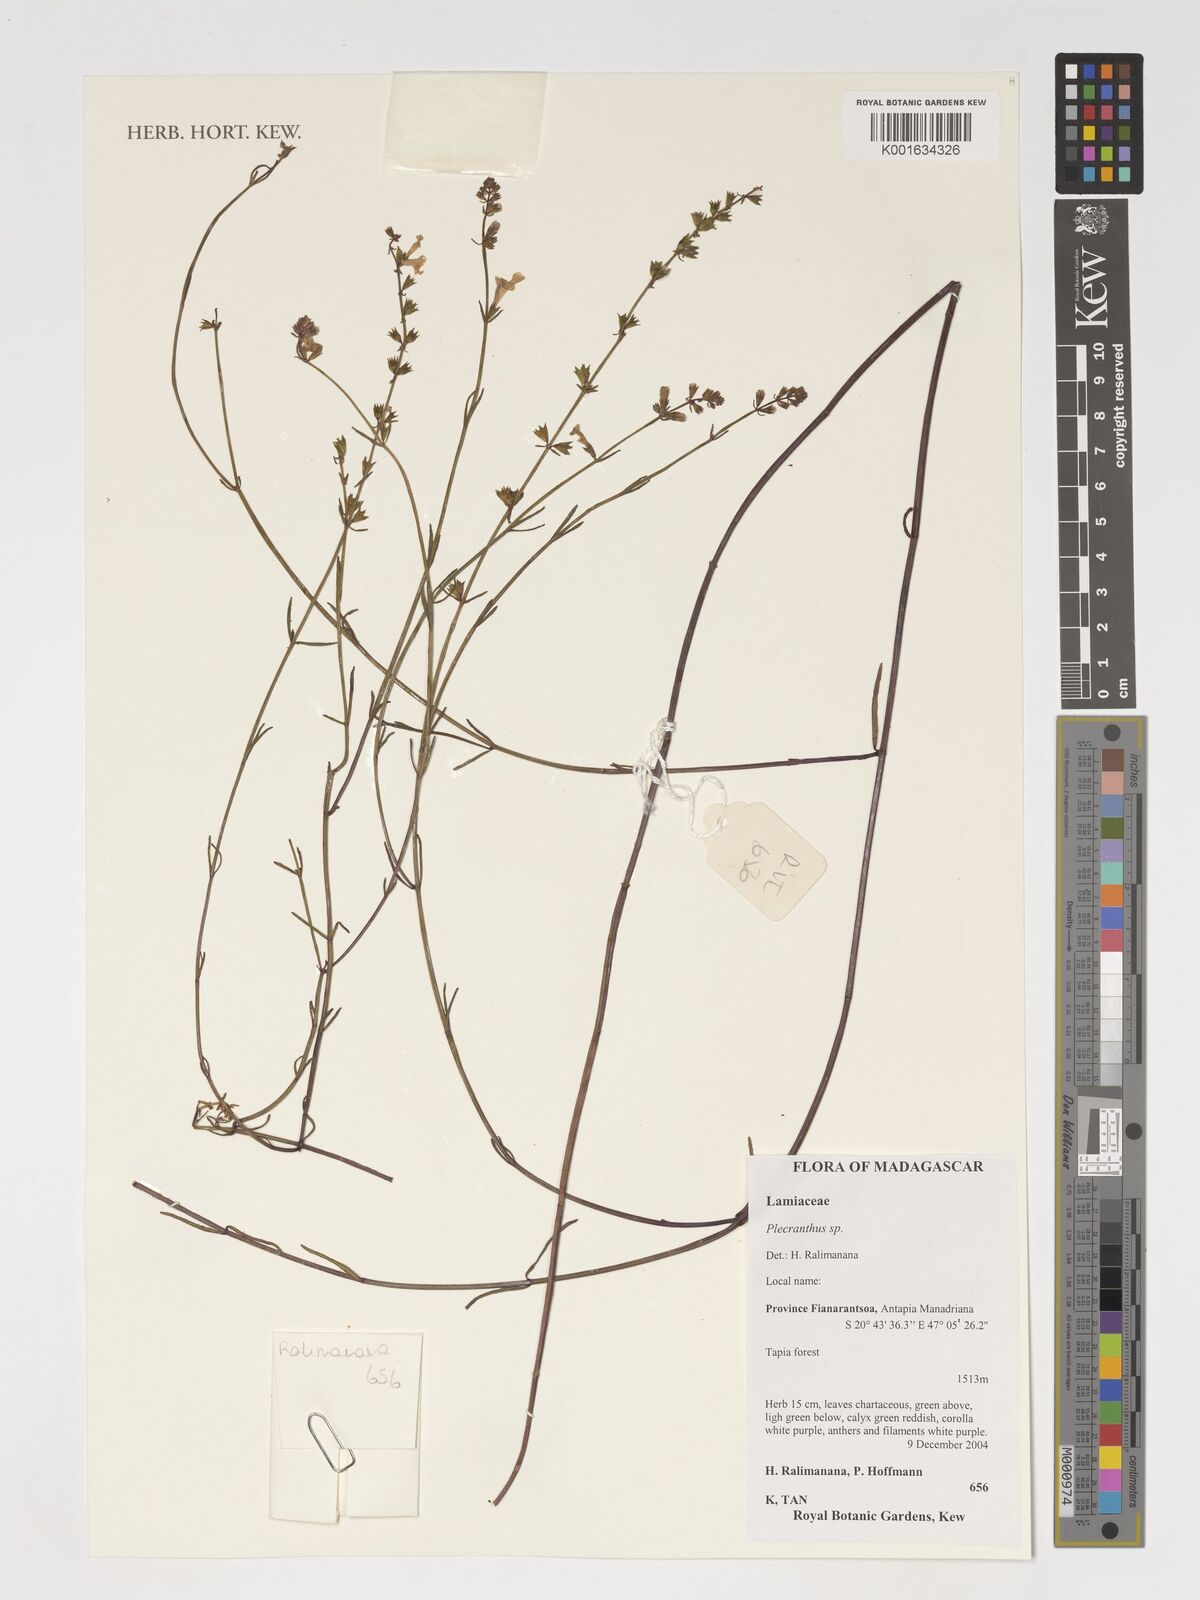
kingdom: Plantae
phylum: Tracheophyta
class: Magnoliopsida
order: Lamiales
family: Lamiaceae
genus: Plectranthus
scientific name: Plectranthus
